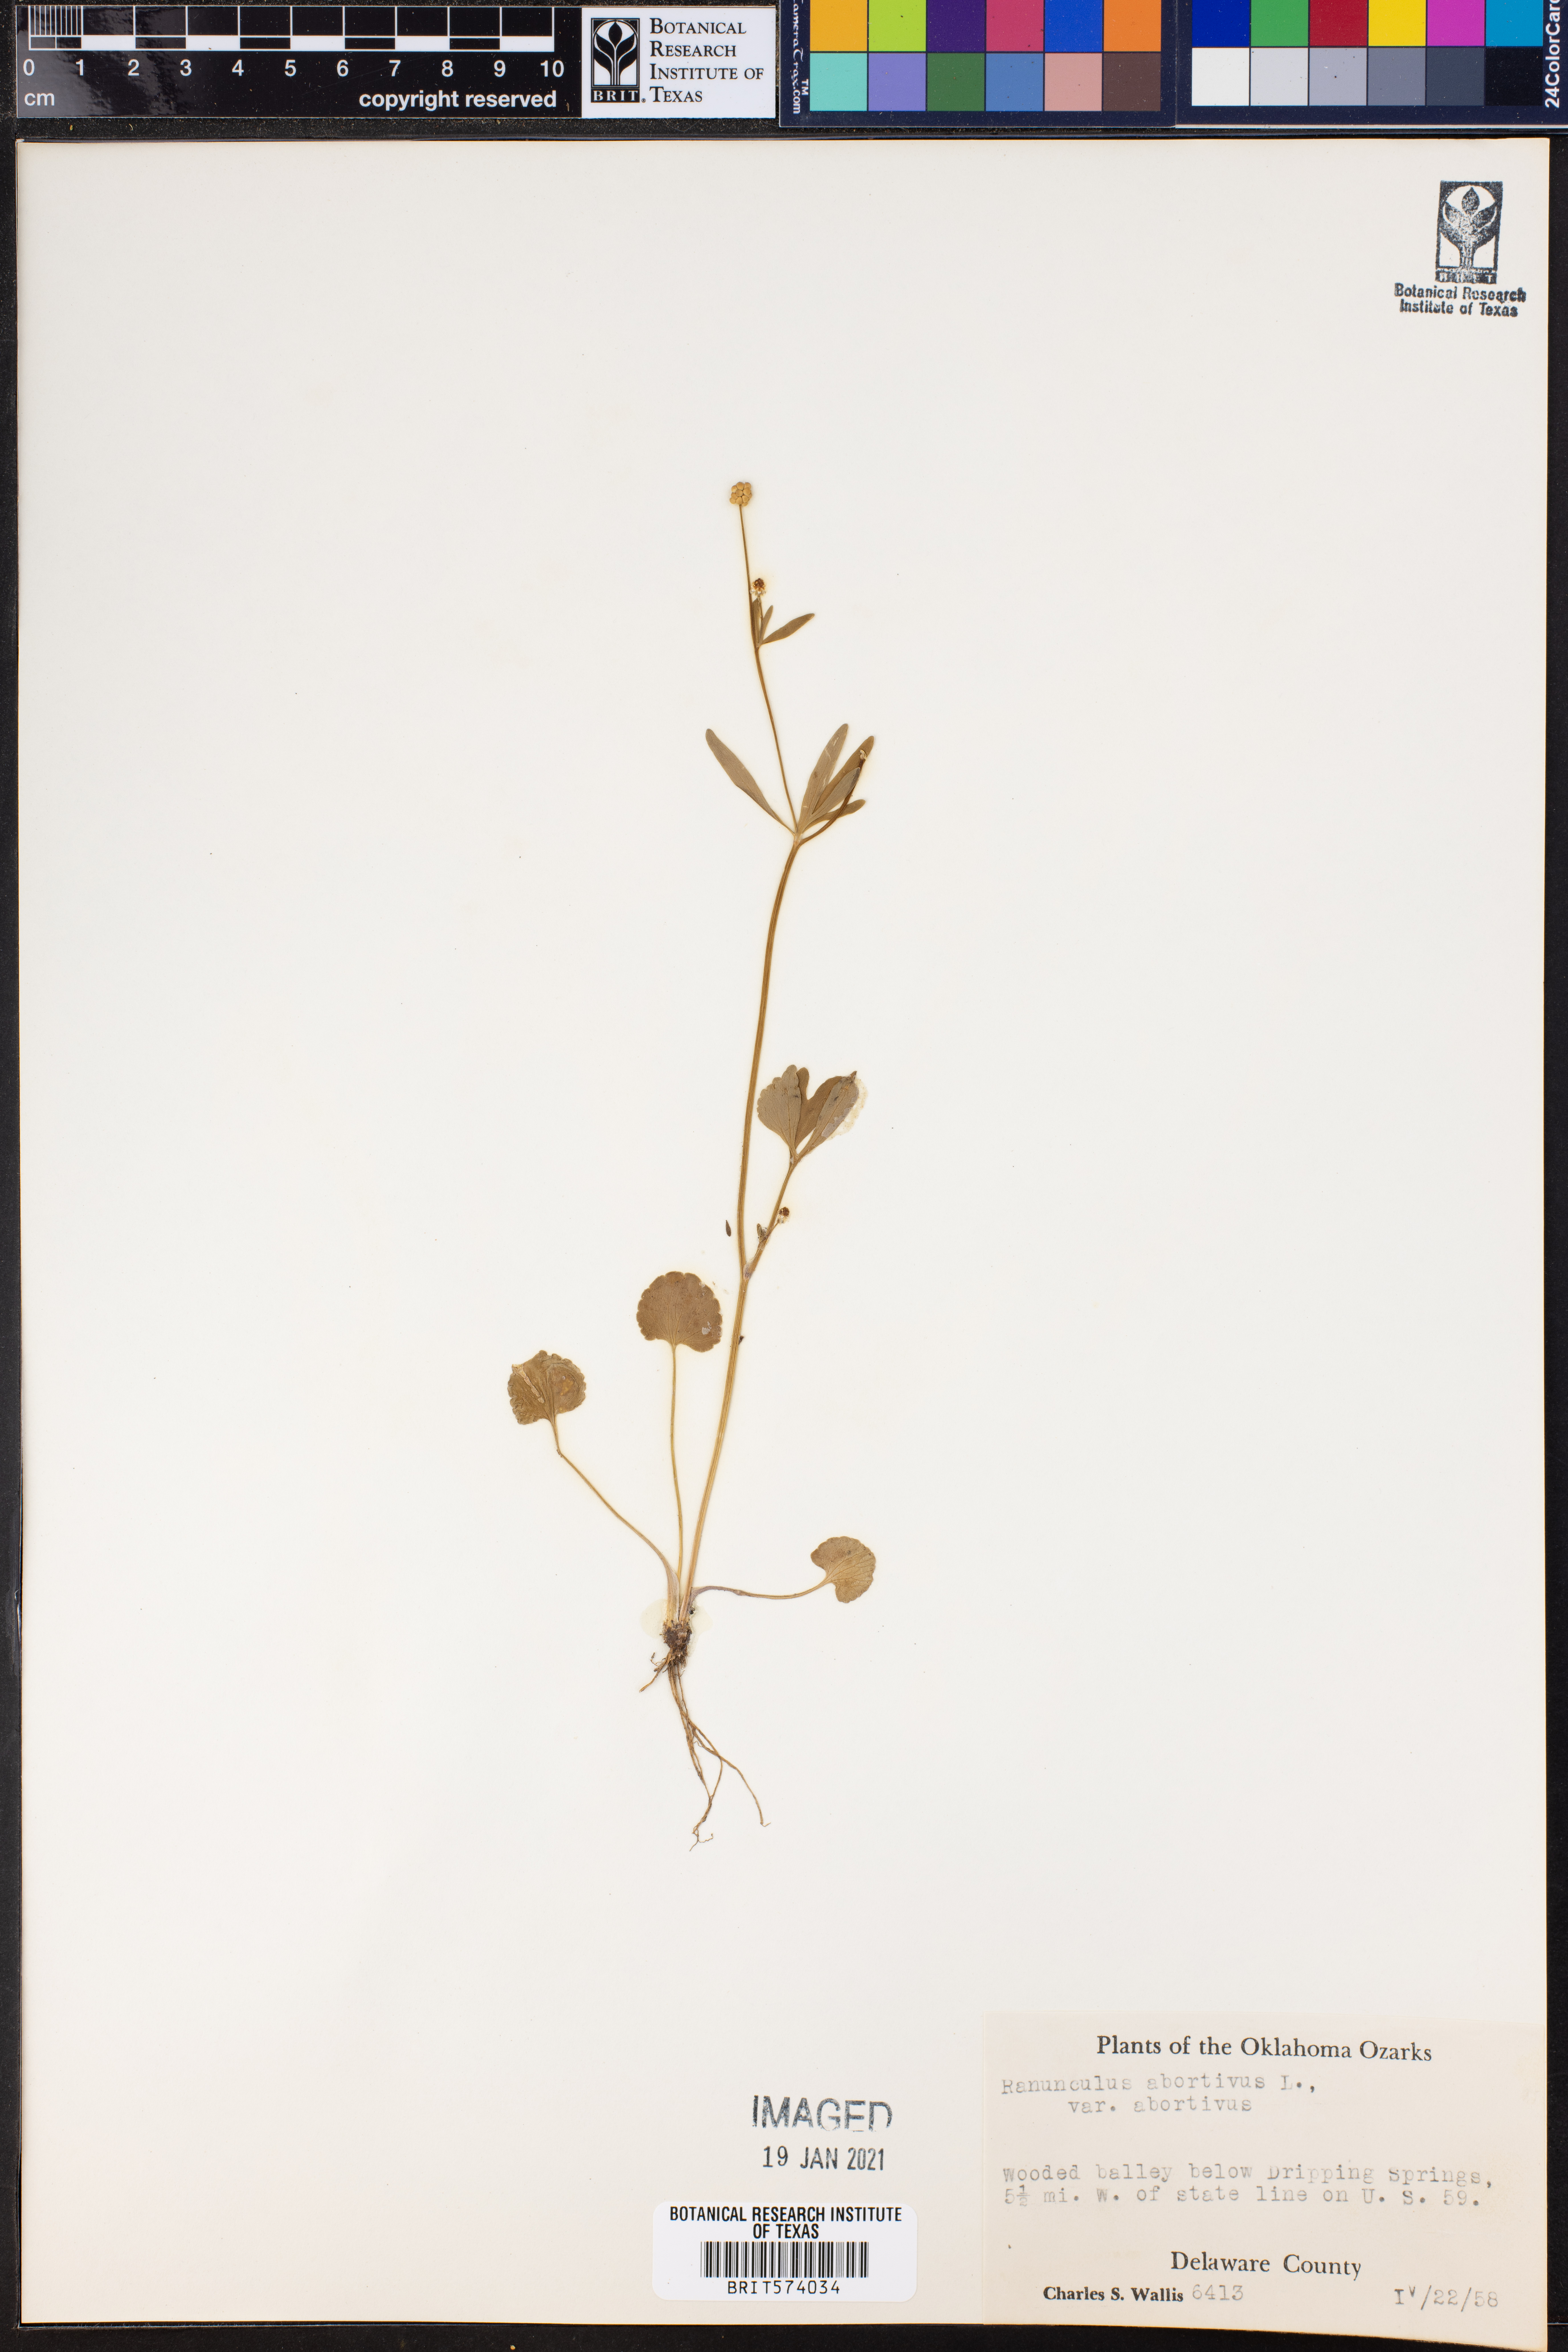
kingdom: Plantae
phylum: Tracheophyta
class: Magnoliopsida
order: Ranunculales
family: Ranunculaceae
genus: Ranunculus
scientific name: Ranunculus abortivus
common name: Early wood buttercup
